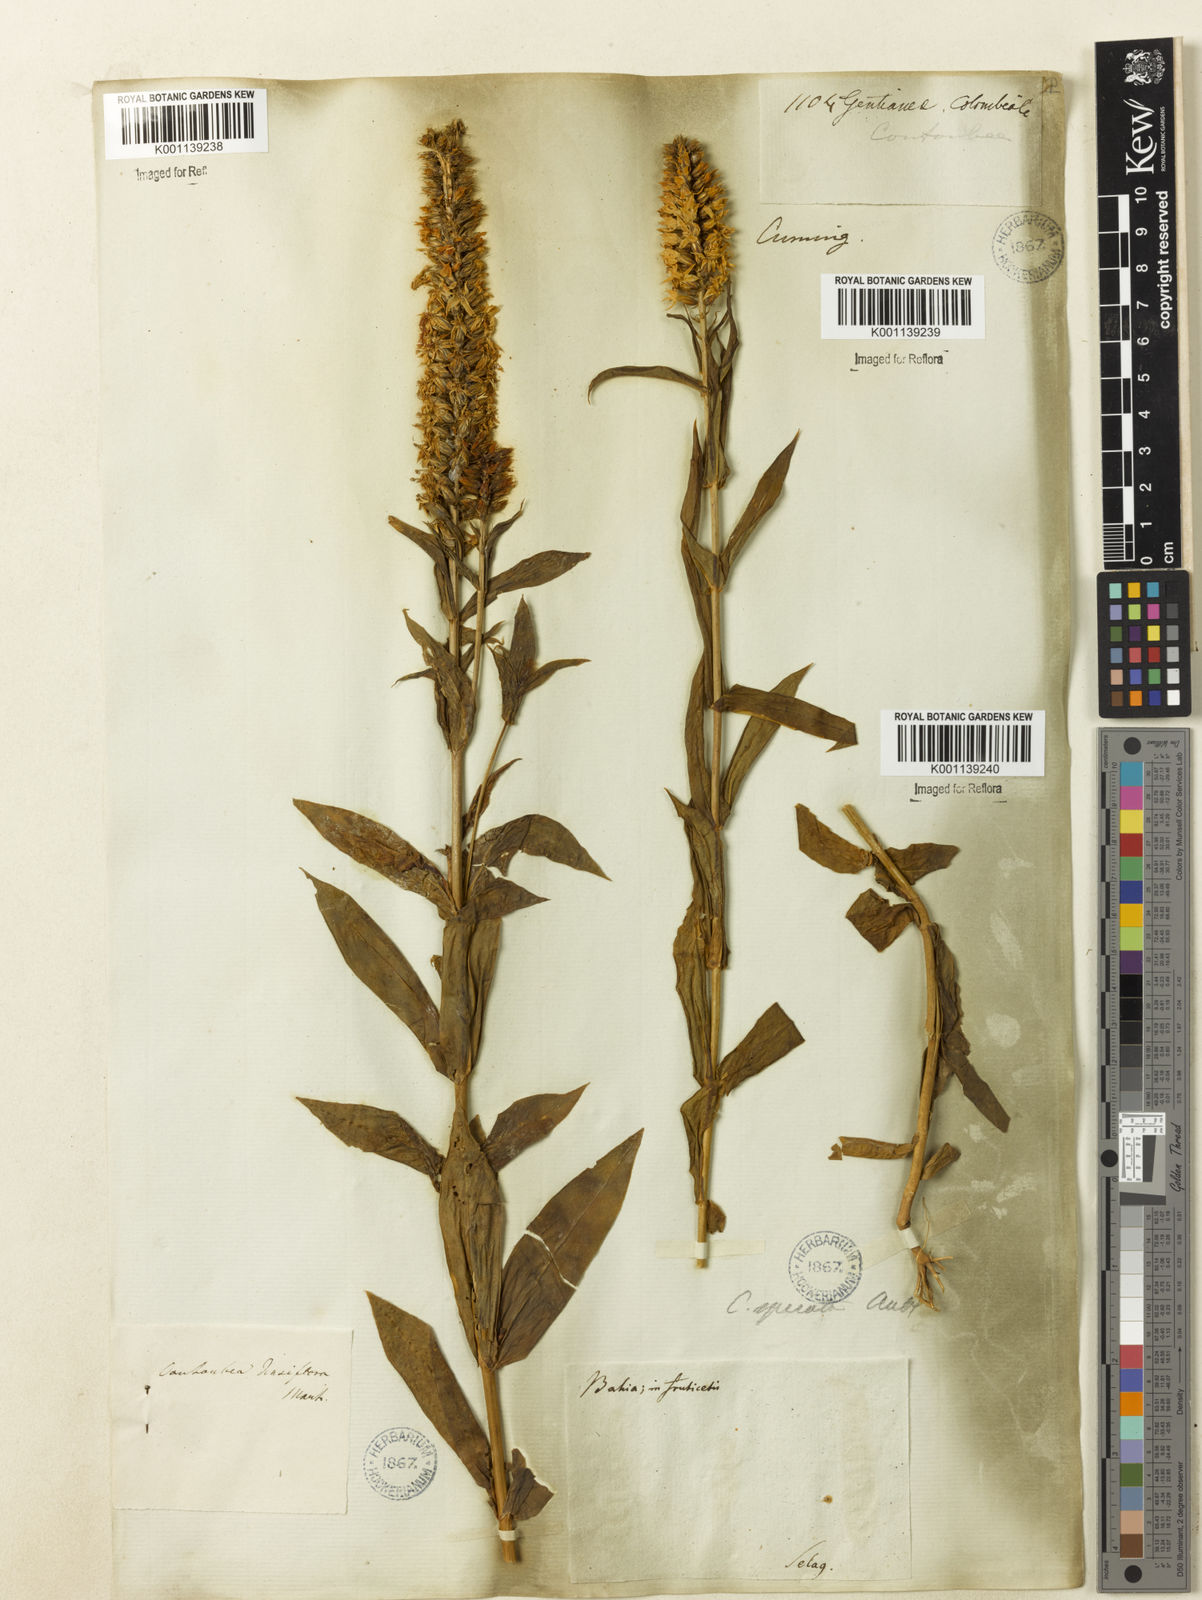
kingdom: Plantae
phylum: Tracheophyta
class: Magnoliopsida
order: Gentianales
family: Gentianaceae
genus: Coutoubea
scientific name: Coutoubea spicata
